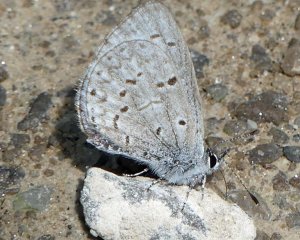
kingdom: Animalia
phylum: Arthropoda
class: Insecta
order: Lepidoptera
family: Lycaenidae
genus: Celastrina
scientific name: Celastrina
